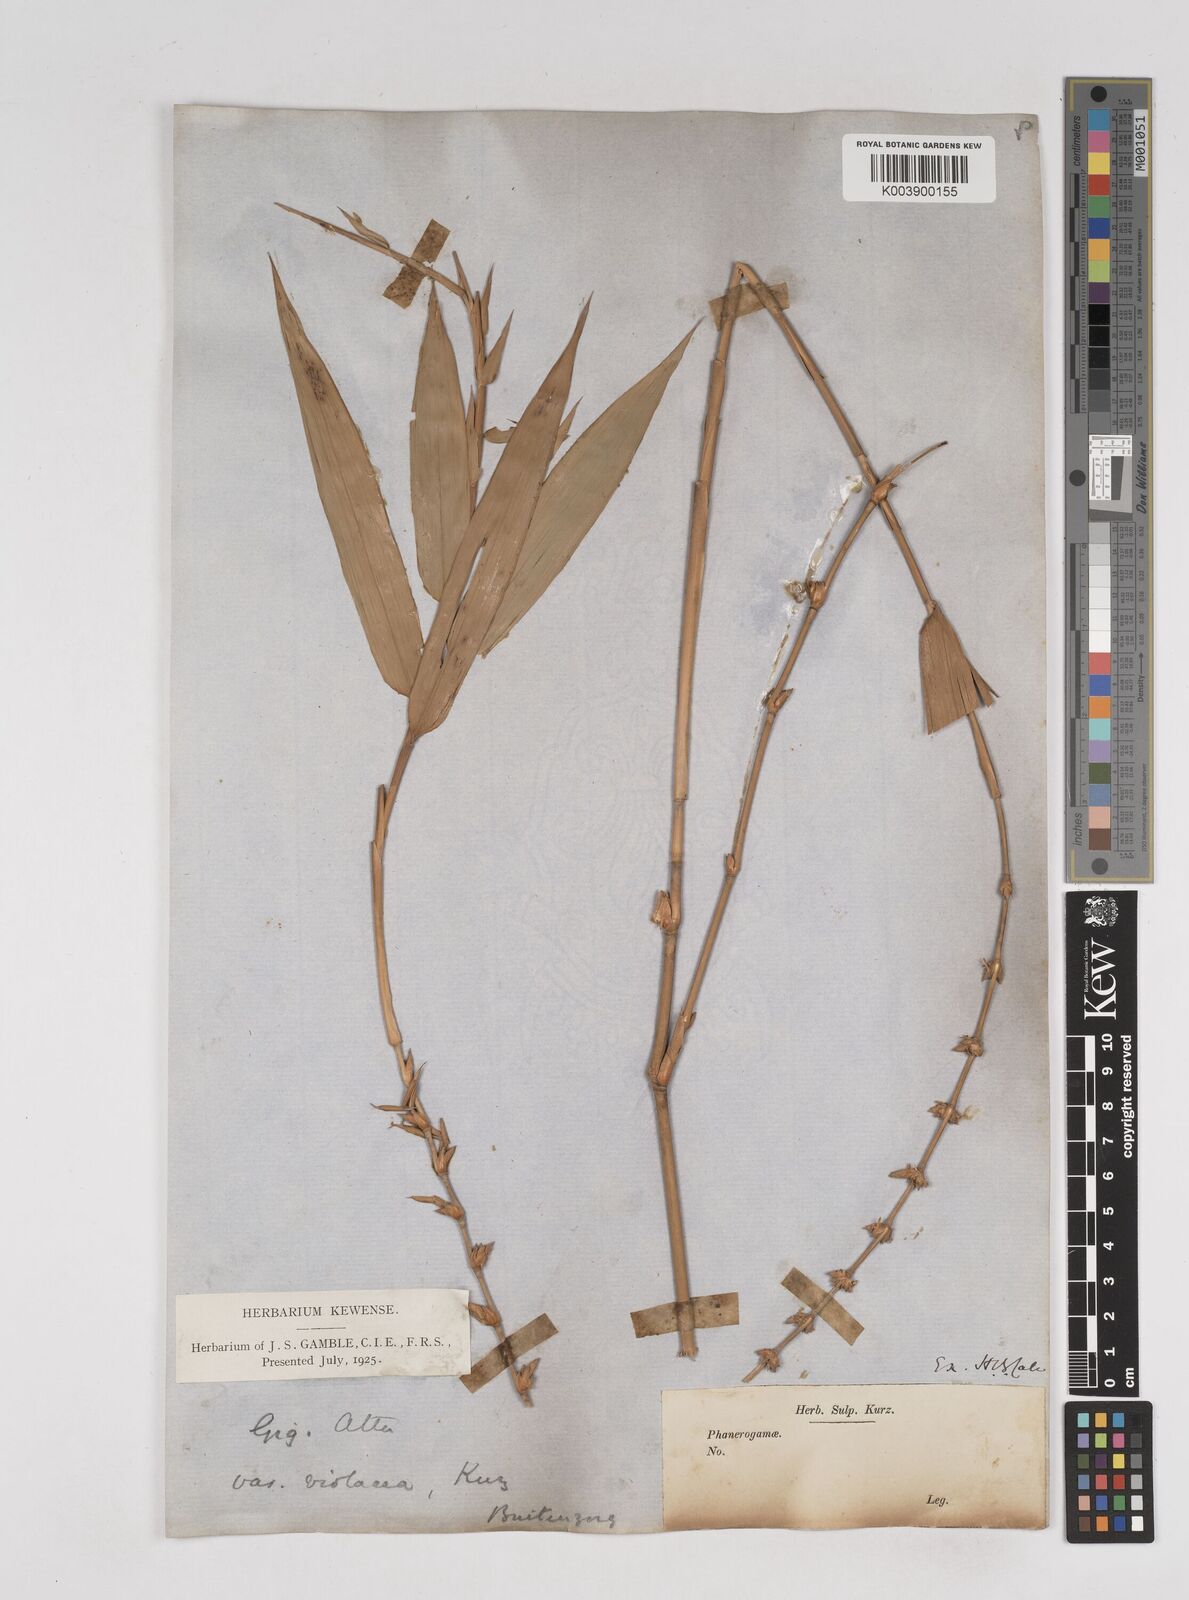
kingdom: Plantae
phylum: Tracheophyta
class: Liliopsida
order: Poales
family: Poaceae
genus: Gigantochloa
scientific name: Gigantochloa atter
